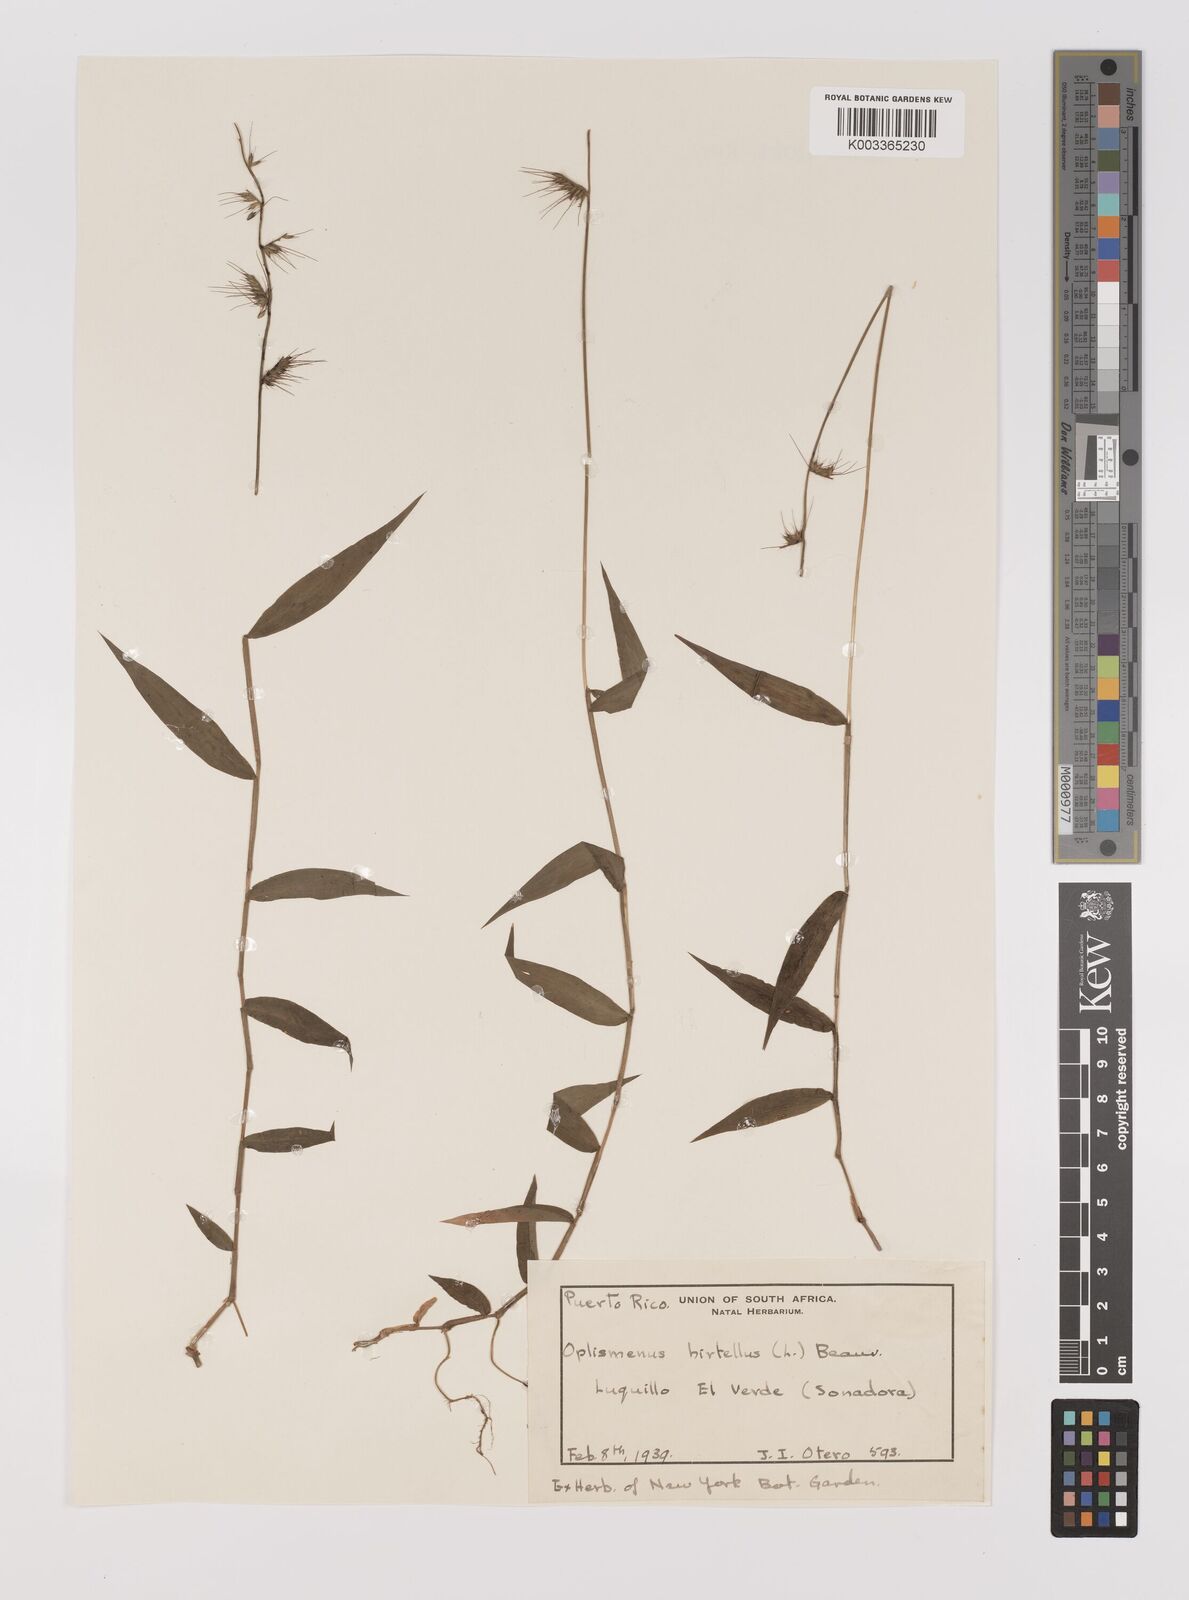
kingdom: Plantae
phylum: Tracheophyta
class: Liliopsida
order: Poales
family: Poaceae
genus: Oplismenus
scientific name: Oplismenus hirtellus
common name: Basketgrass
